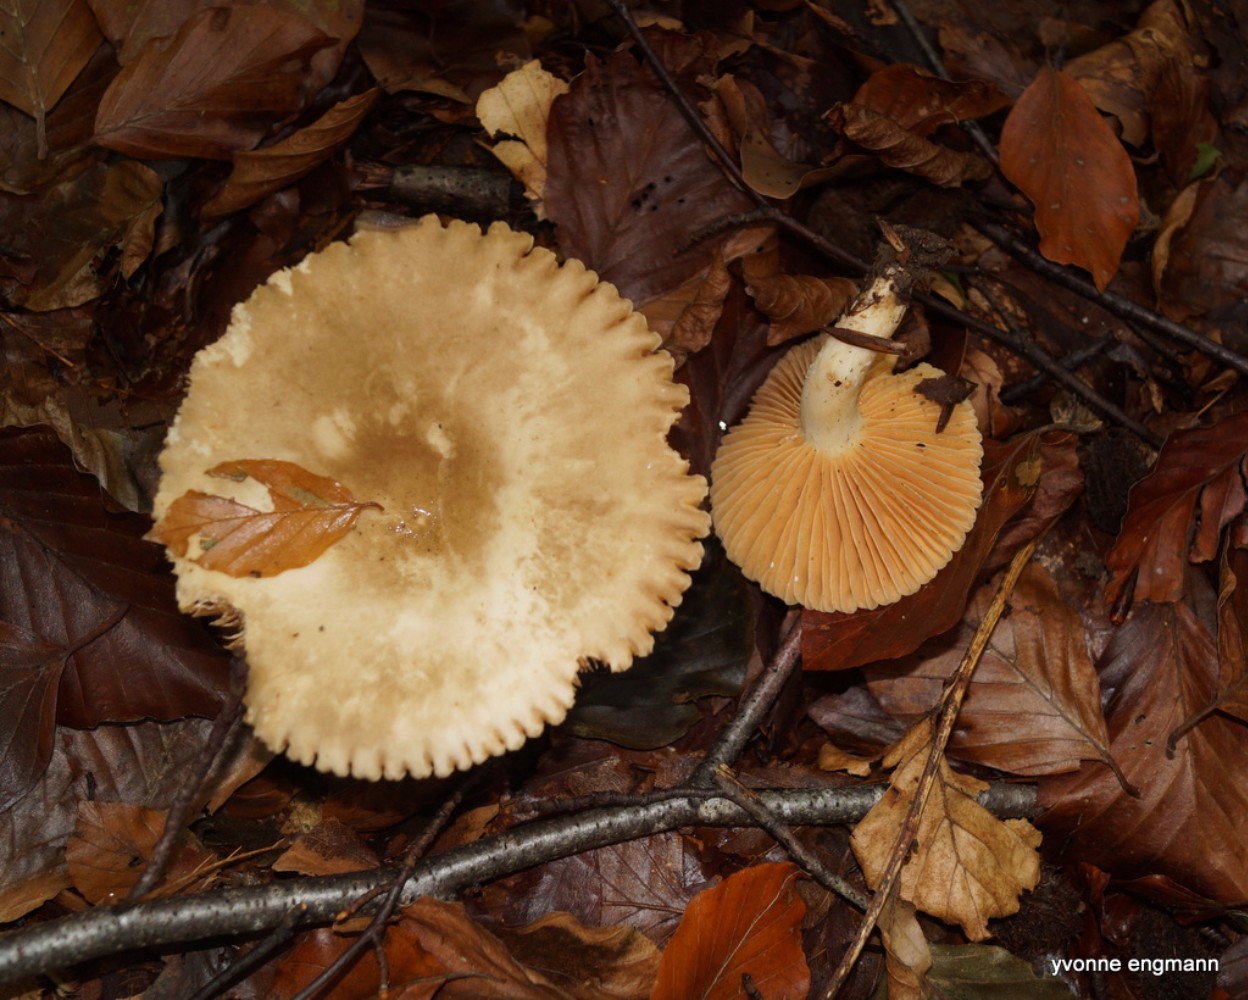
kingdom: Fungi
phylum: Basidiomycota
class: Agaricomycetes
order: Russulales
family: Russulaceae
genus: Lactarius
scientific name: Lactarius ruginosus
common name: gråbrun mælkehat
